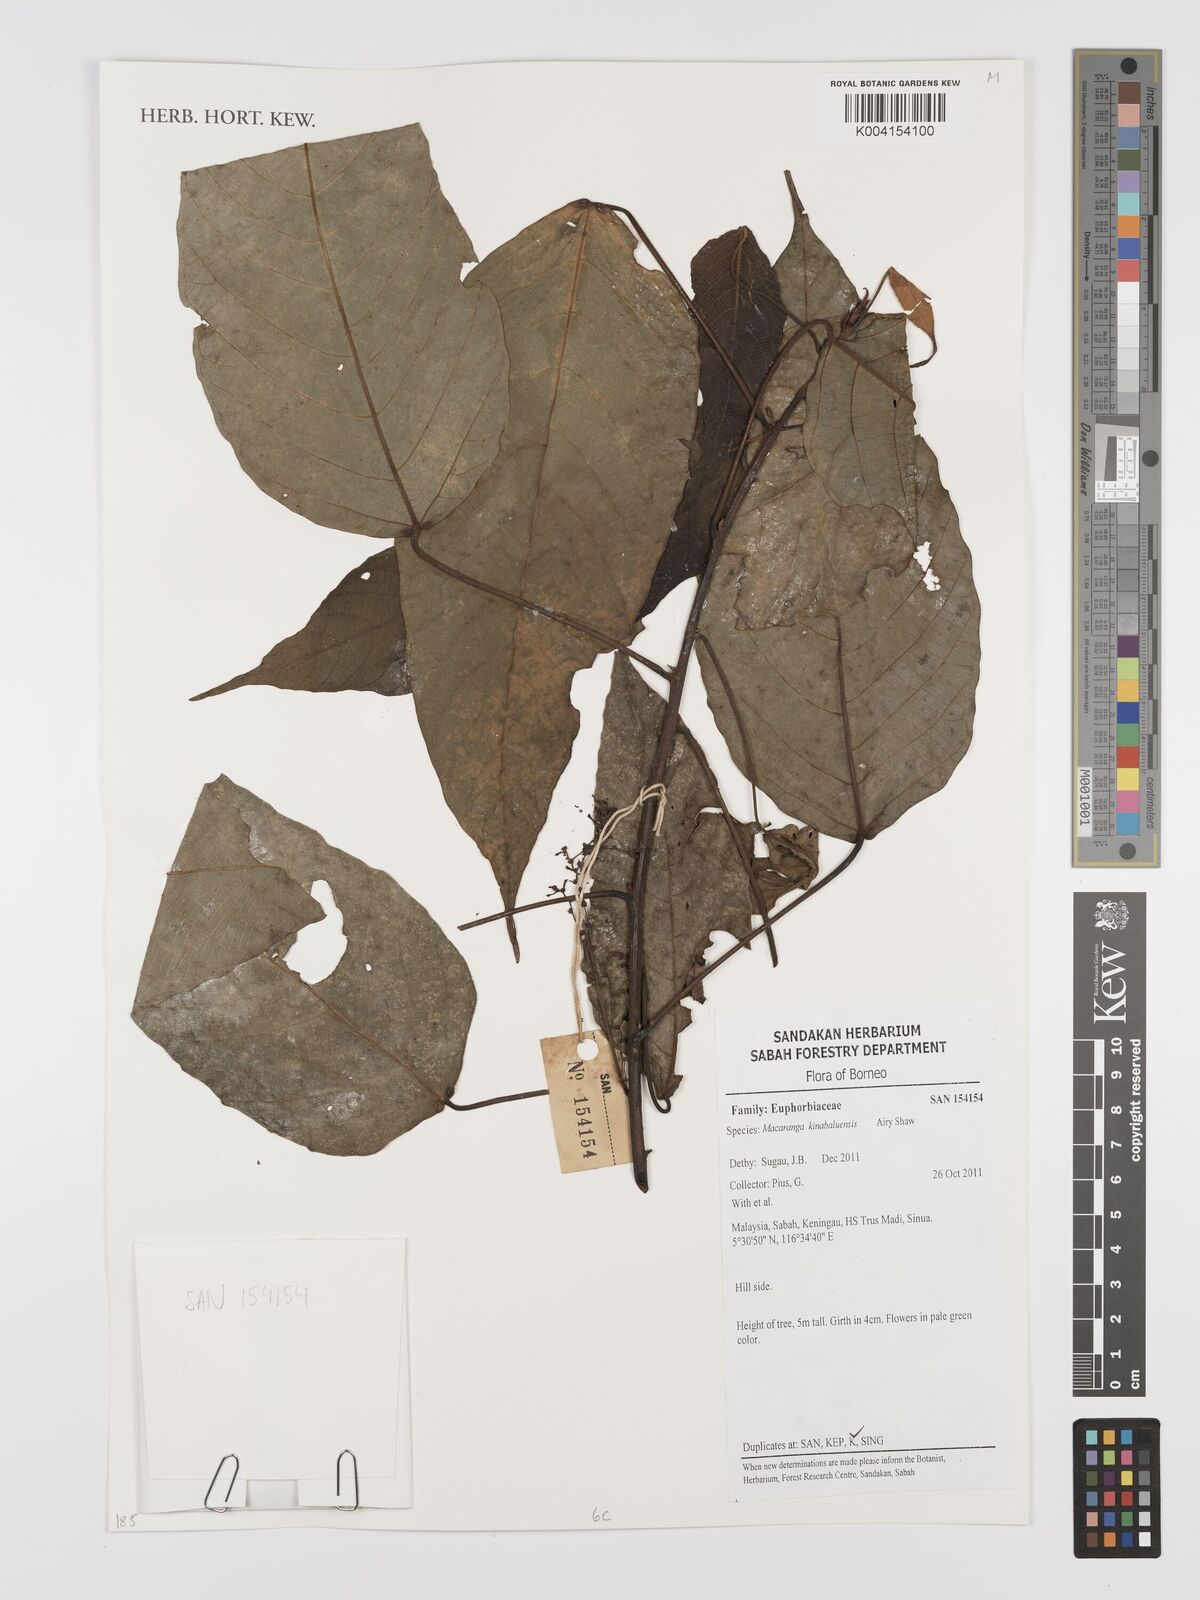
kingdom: Plantae
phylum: Tracheophyta
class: Magnoliopsida
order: Malpighiales
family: Euphorbiaceae
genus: Macaranga
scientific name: Macaranga kinabaluensis
